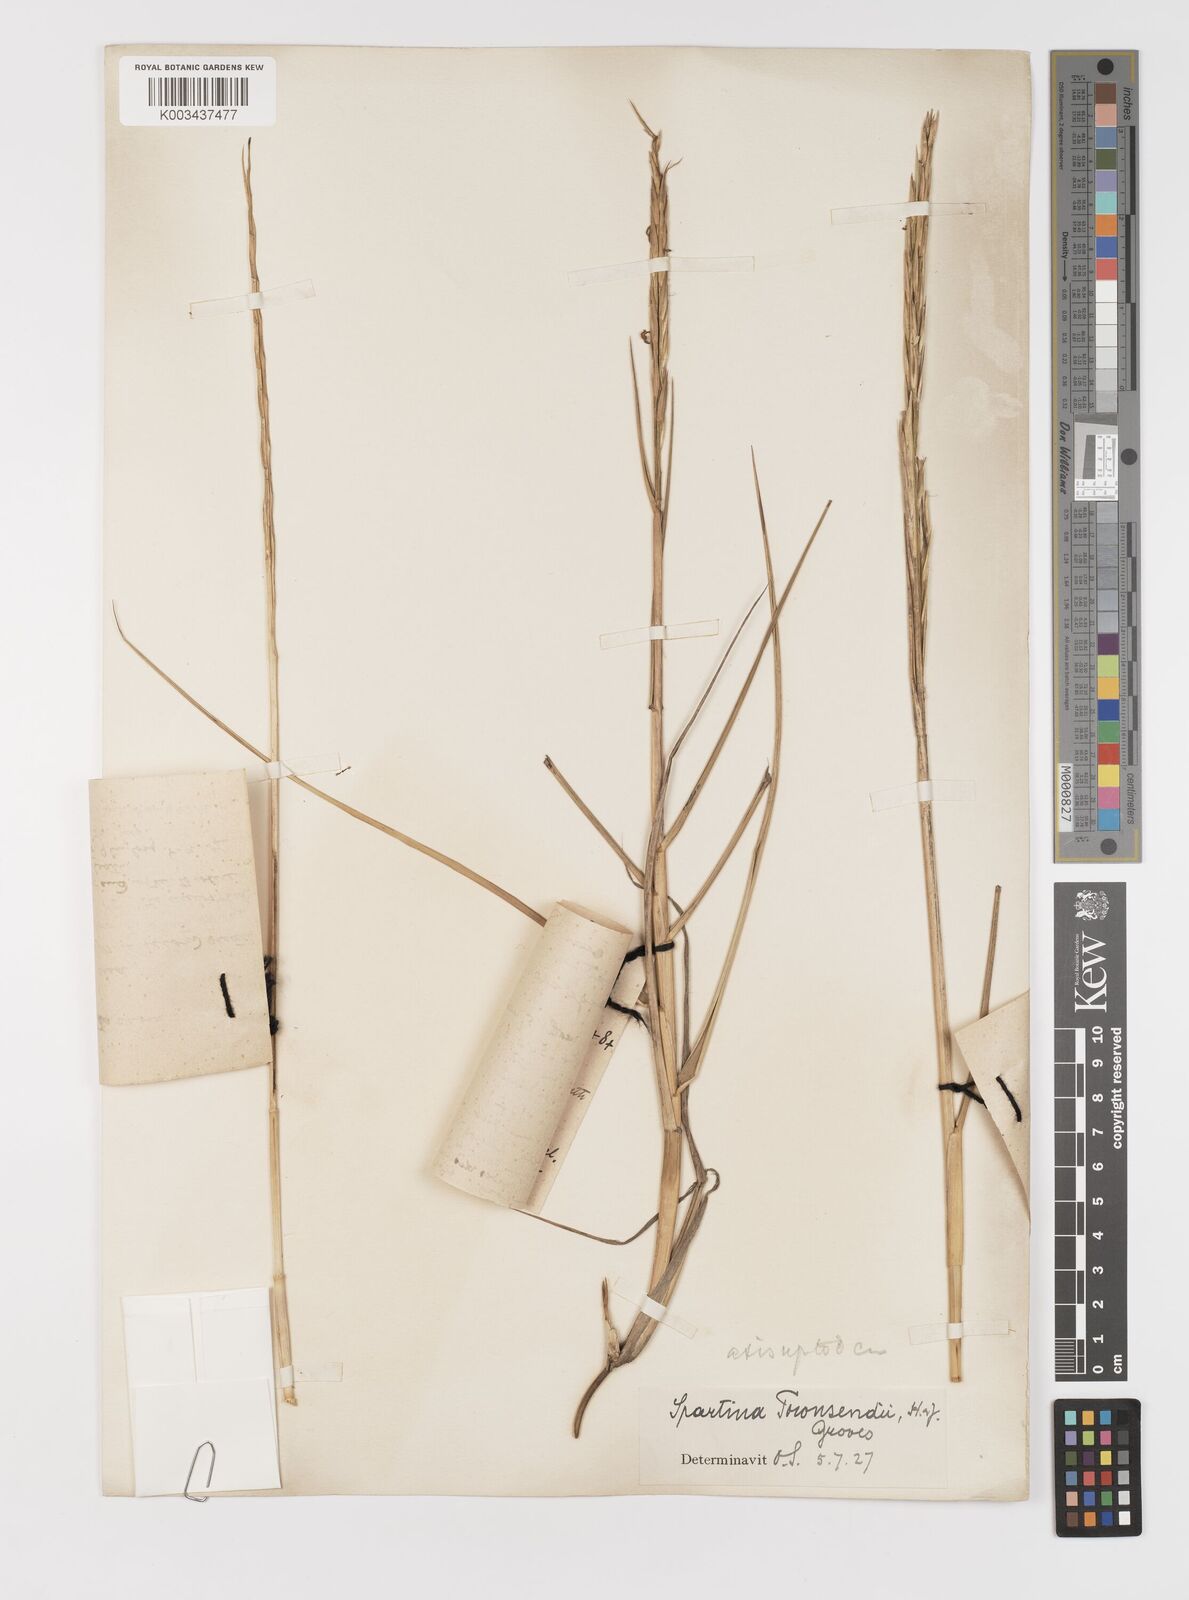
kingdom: Plantae
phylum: Tracheophyta
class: Liliopsida
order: Poales
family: Poaceae
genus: Sporobolus
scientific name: Sporobolus anglicus
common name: English cordgrass
